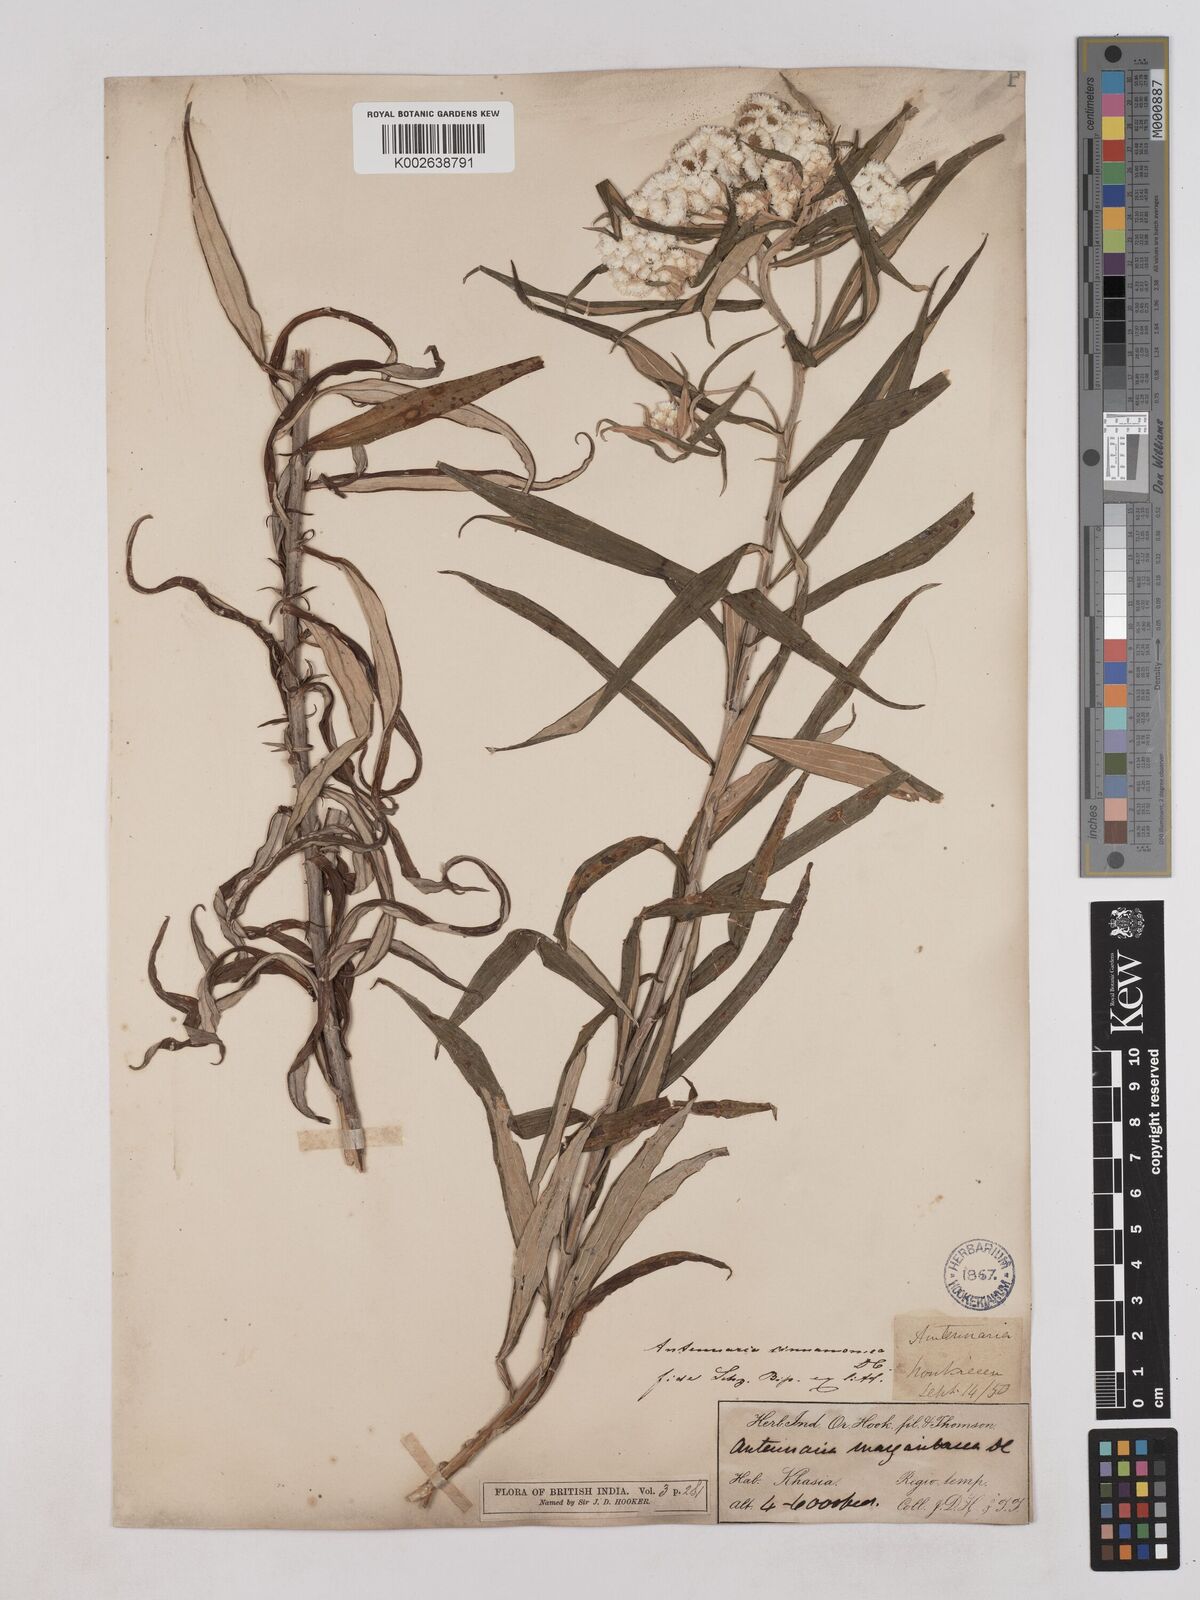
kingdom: Plantae
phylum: Tracheophyta
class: Magnoliopsida
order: Asterales
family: Asteraceae
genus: Anaphalis
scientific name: Anaphalis marcescens
